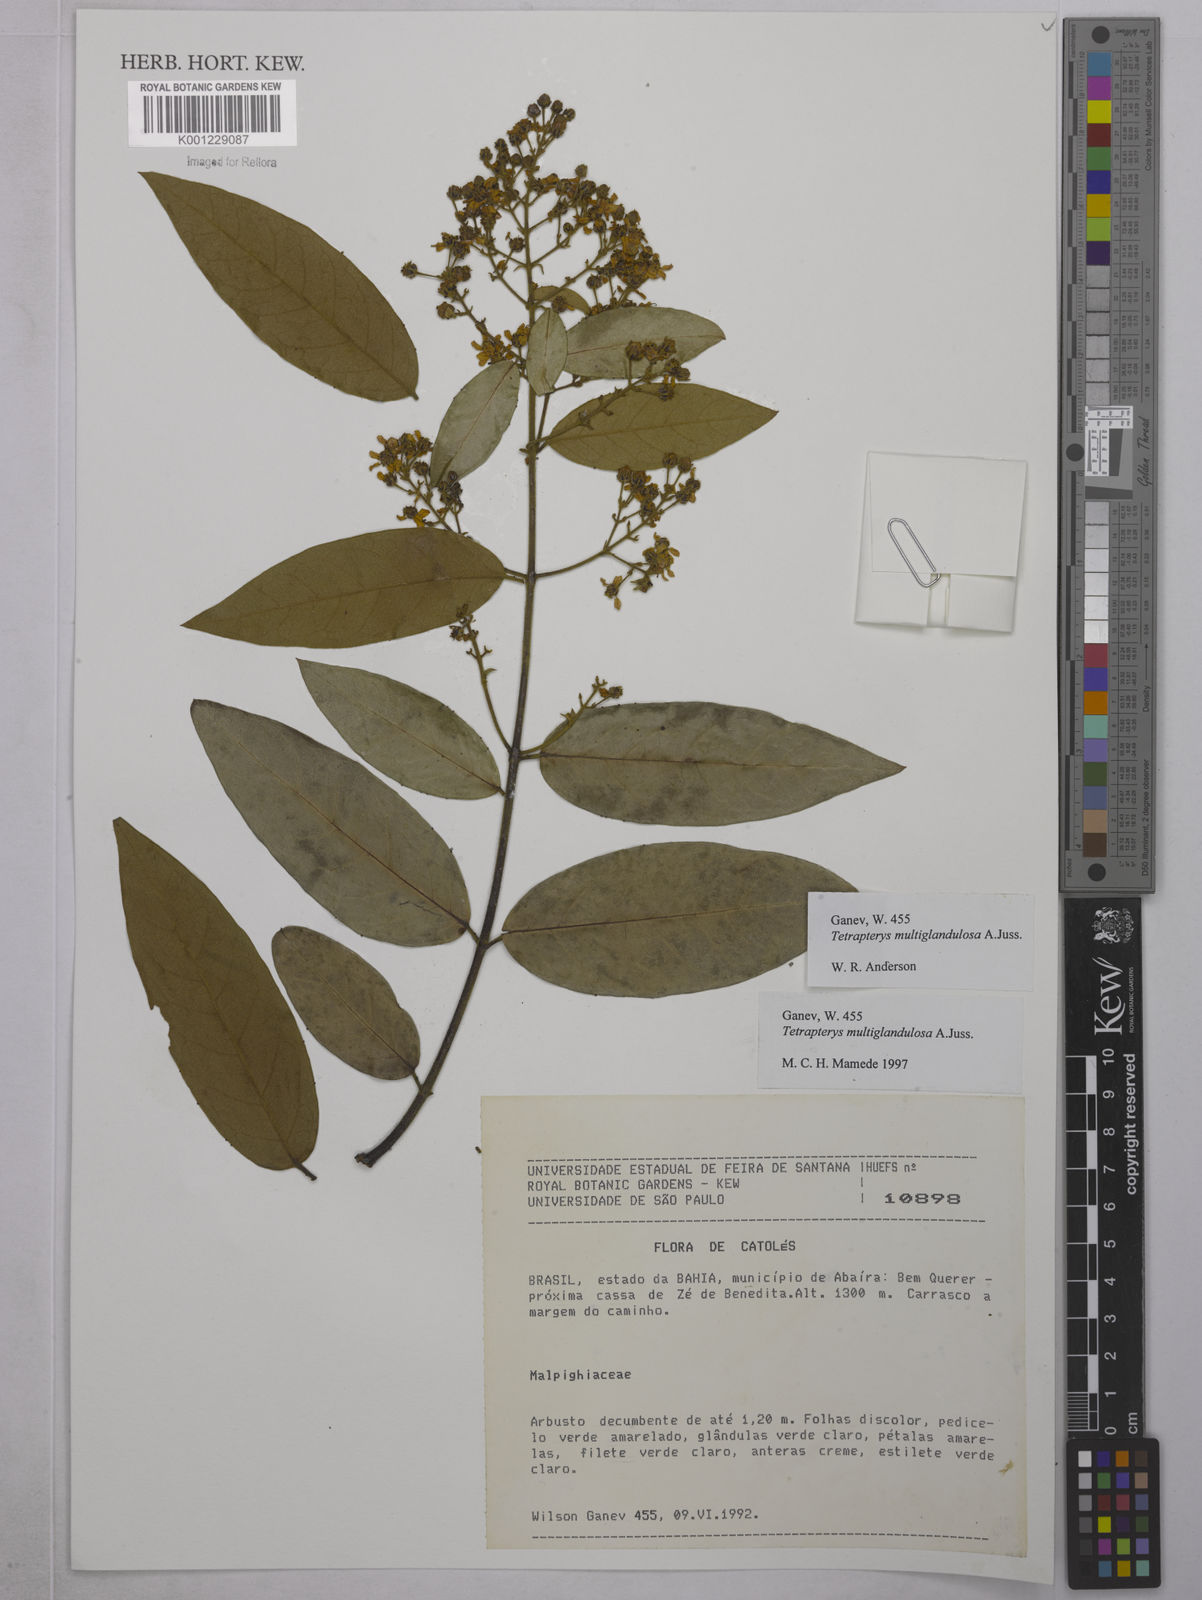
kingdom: Plantae
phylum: Tracheophyta
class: Magnoliopsida
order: Malpighiales
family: Malpighiaceae
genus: Niedenzuella
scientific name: Niedenzuella multiglandulosa
